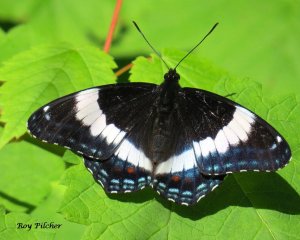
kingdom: Animalia
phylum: Arthropoda
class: Insecta
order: Lepidoptera
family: Nymphalidae
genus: Limenitis
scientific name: Limenitis arthemis
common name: Red-spotted Admiral
